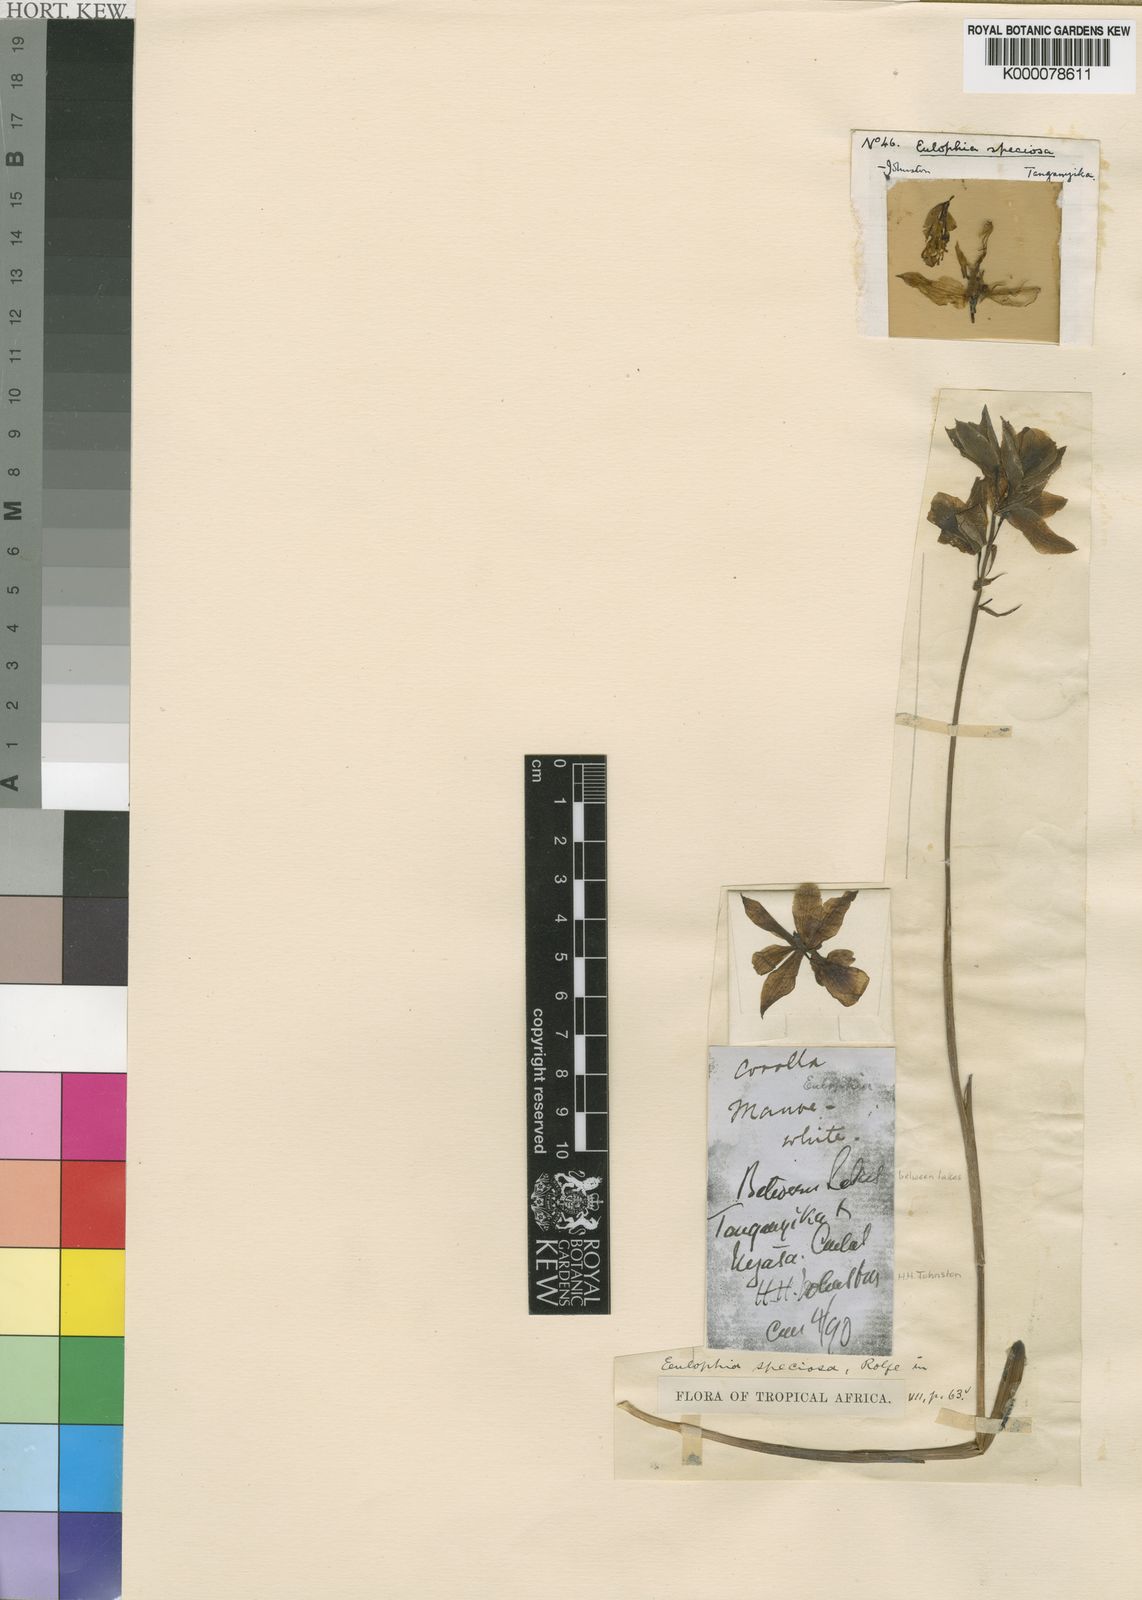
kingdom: Plantae
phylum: Tracheophyta
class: Liliopsida
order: Asparagales
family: Orchidaceae
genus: Eulophia
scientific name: Eulophia euantha
